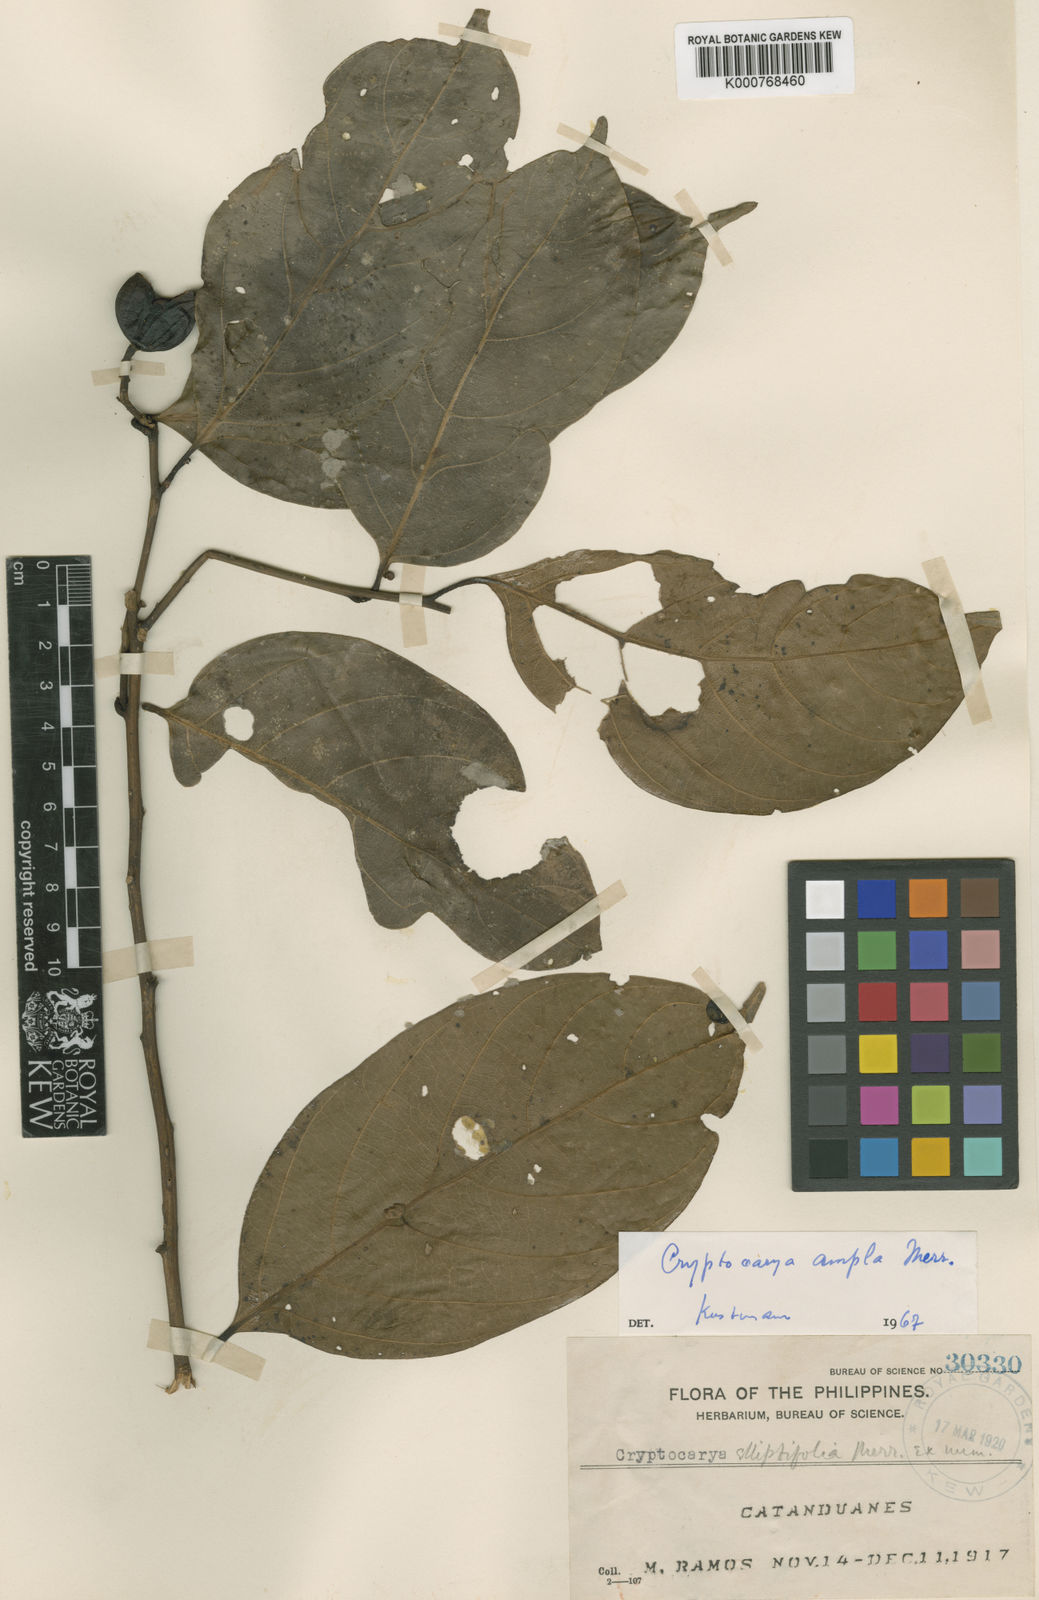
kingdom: Plantae
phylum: Tracheophyta
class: Magnoliopsida
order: Laurales
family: Lauraceae
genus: Cryptocarya
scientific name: Cryptocarya ampla
